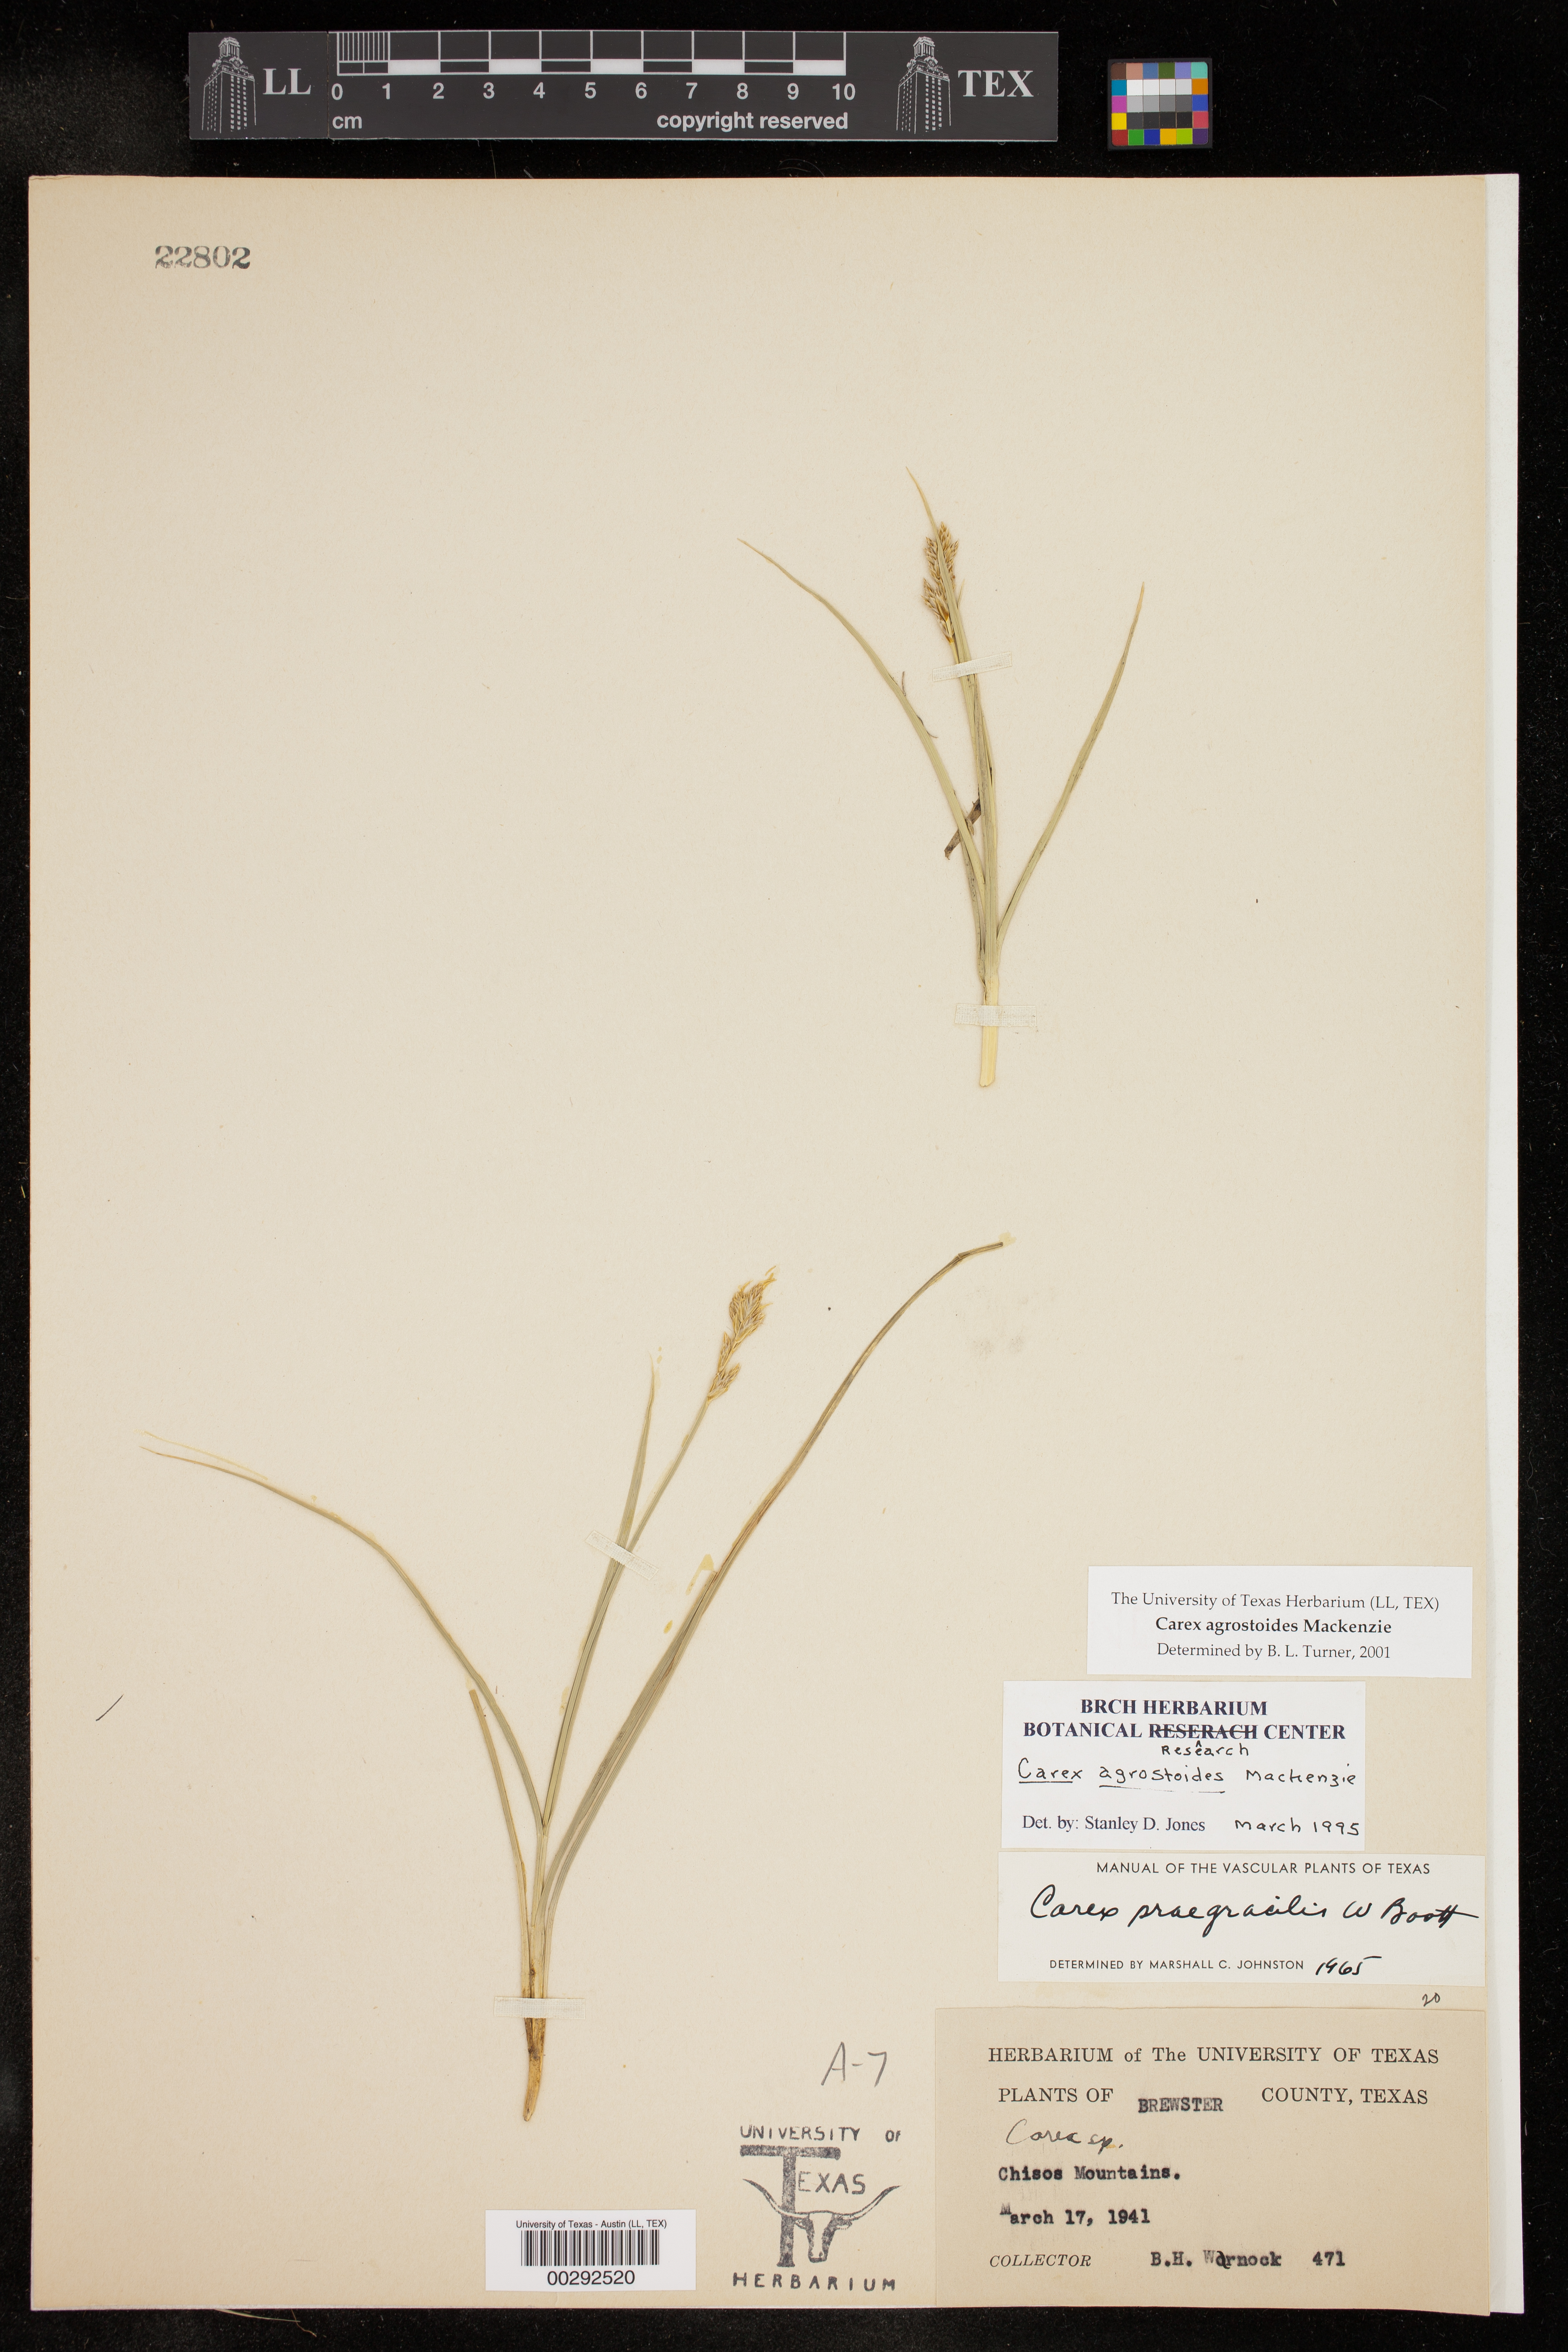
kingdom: Plantae
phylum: Tracheophyta
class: Liliopsida
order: Poales
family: Cyperaceae
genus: Carex
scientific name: Carex alma
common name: Alma sedge
